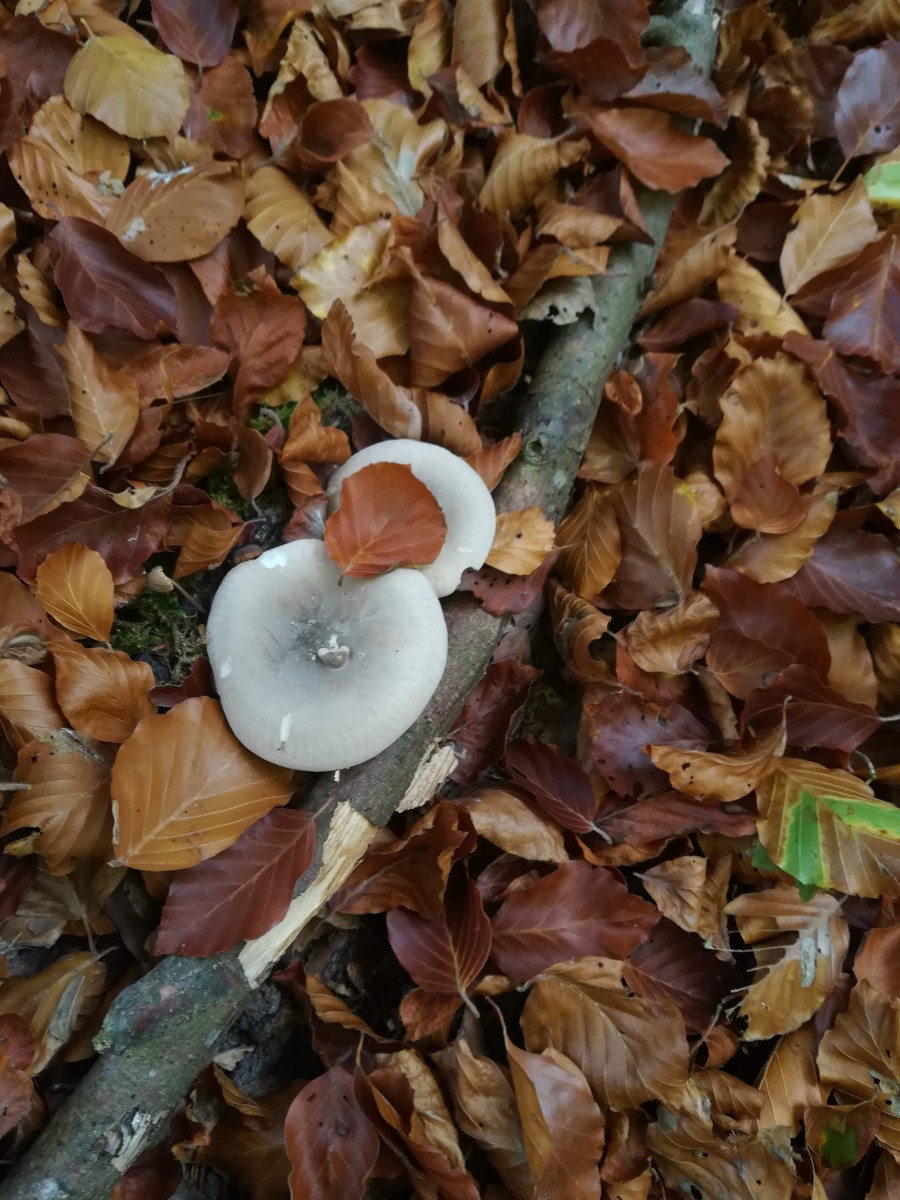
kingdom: Fungi
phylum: Basidiomycota
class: Agaricomycetes
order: Agaricales
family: Tricholomataceae
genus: Clitocybe
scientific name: Clitocybe nebularis
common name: tåge-tragthat
